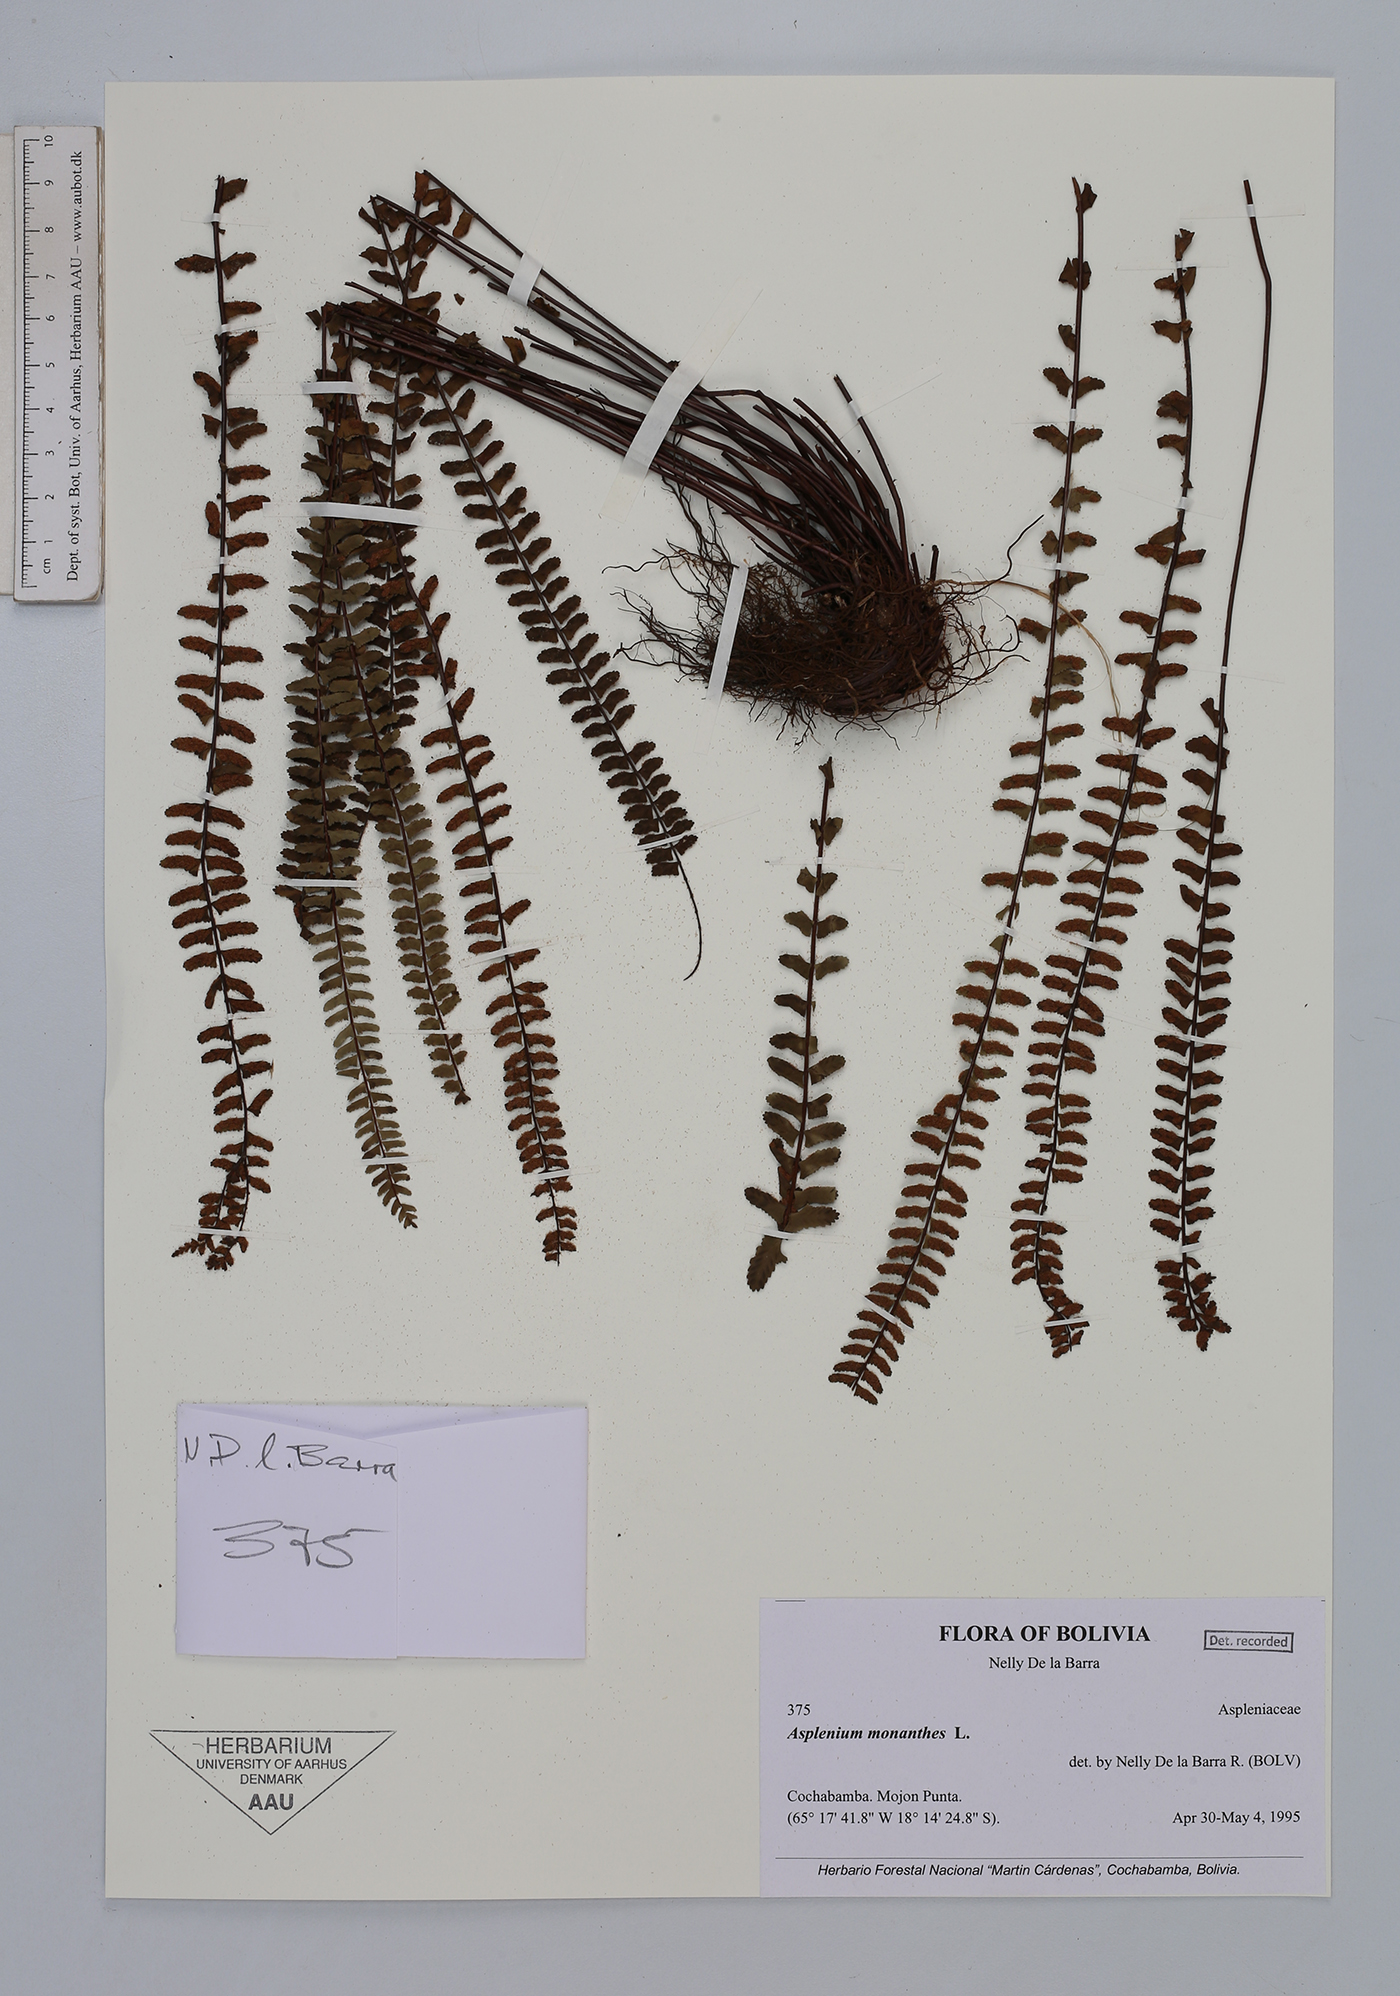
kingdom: Plantae
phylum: Tracheophyta
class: Polypodiopsida
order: Polypodiales
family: Aspleniaceae
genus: Asplenium
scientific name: Asplenium monanthes
